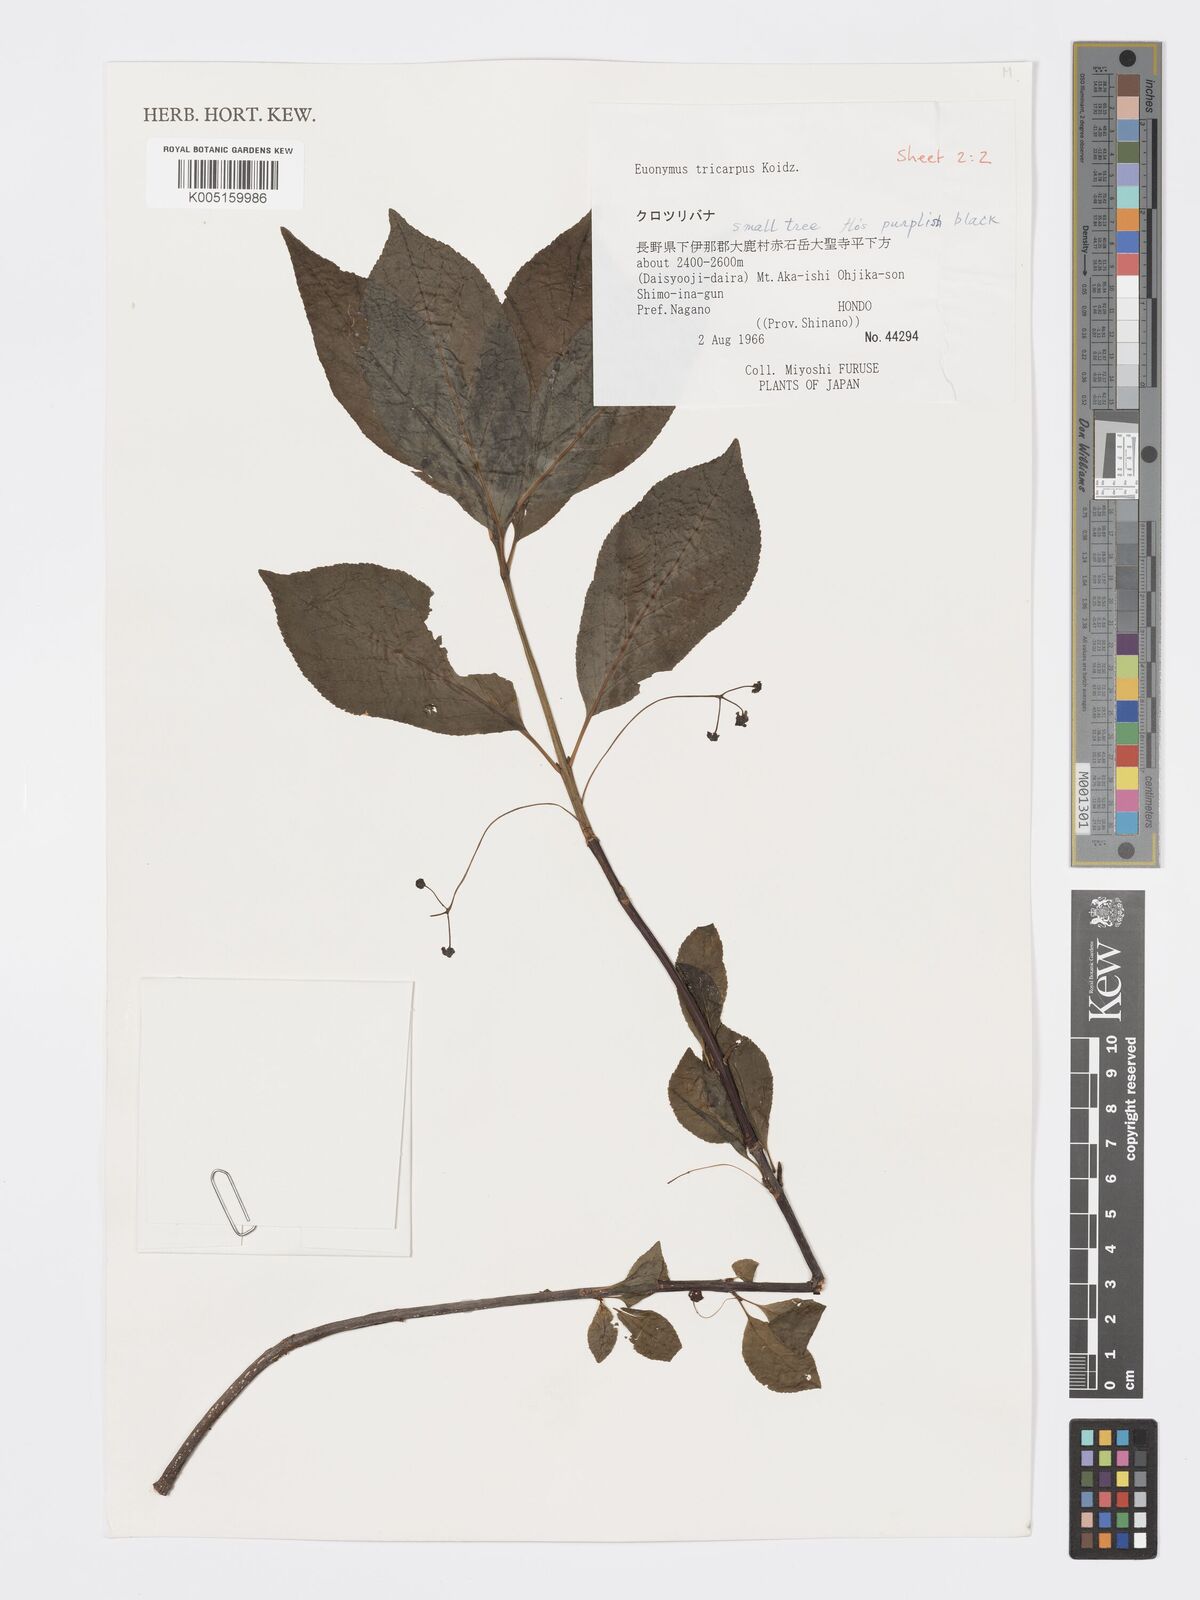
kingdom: Plantae
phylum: Tracheophyta
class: Magnoliopsida
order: Celastrales
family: Celastraceae
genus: Euonymus
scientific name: Euonymus sachalinensis
